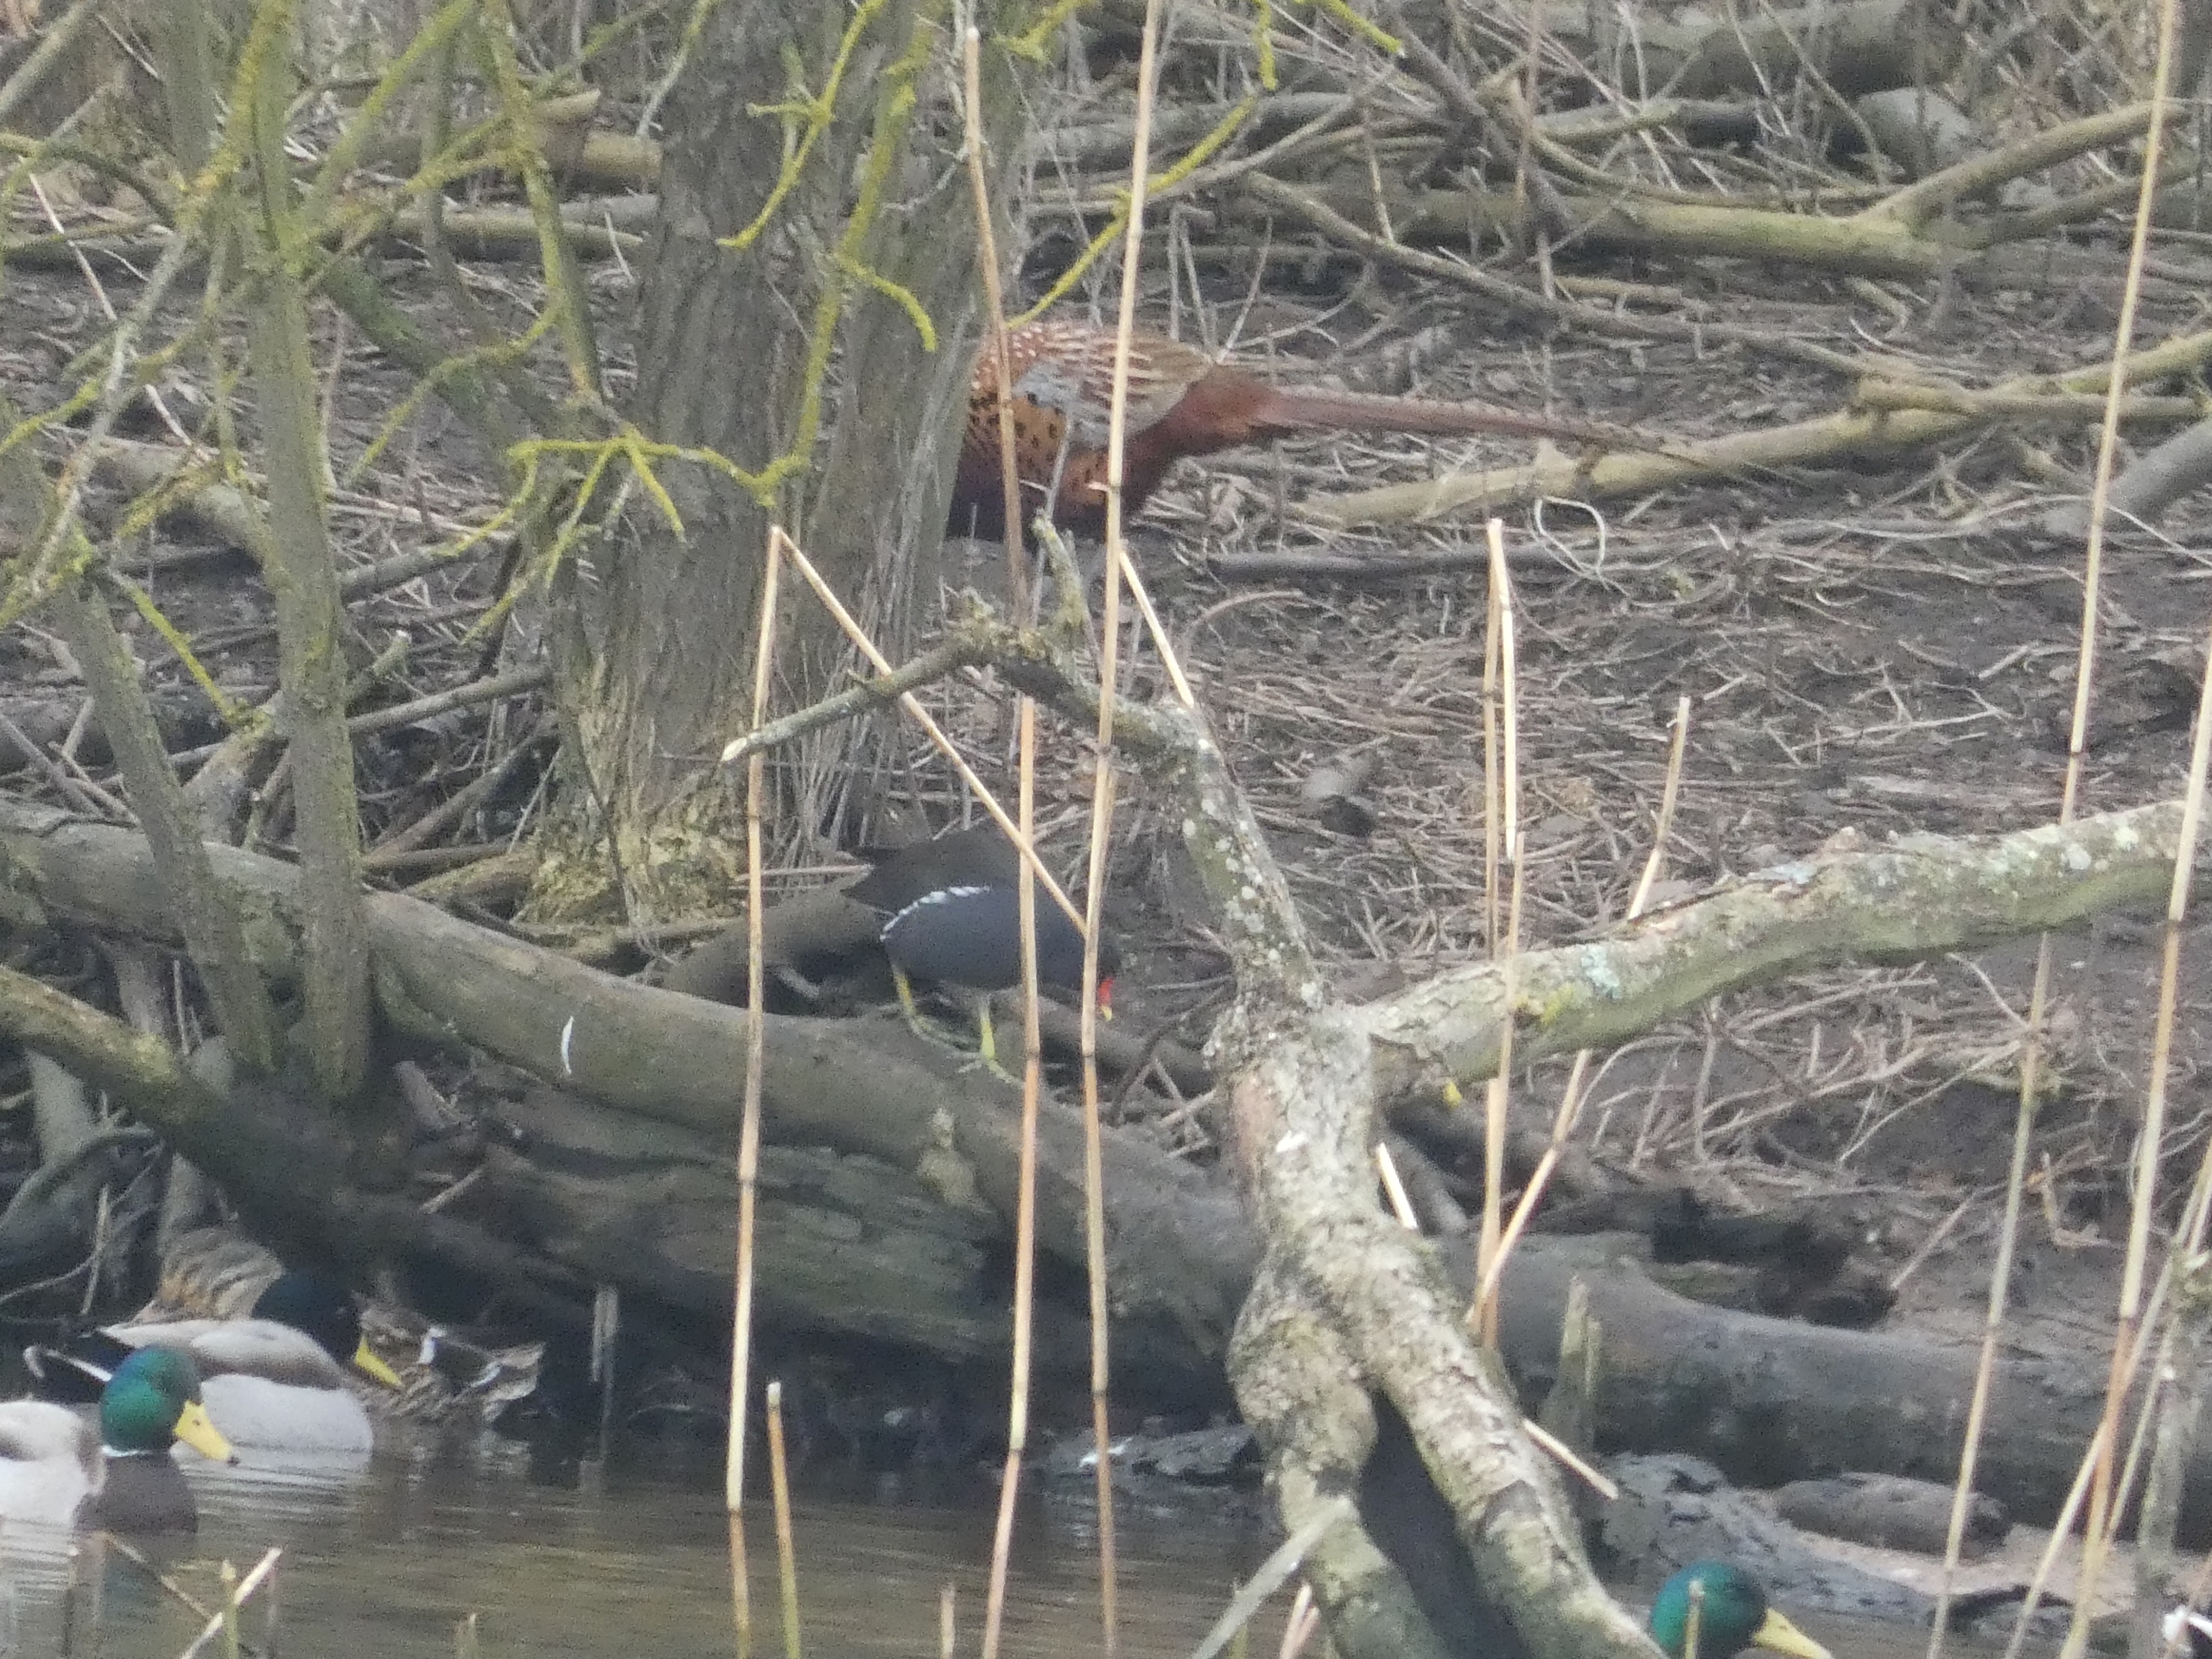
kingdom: Animalia
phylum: Chordata
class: Aves
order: Anseriformes
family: Anatidae
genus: Anas
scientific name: Anas platyrhynchos
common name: Gråand
